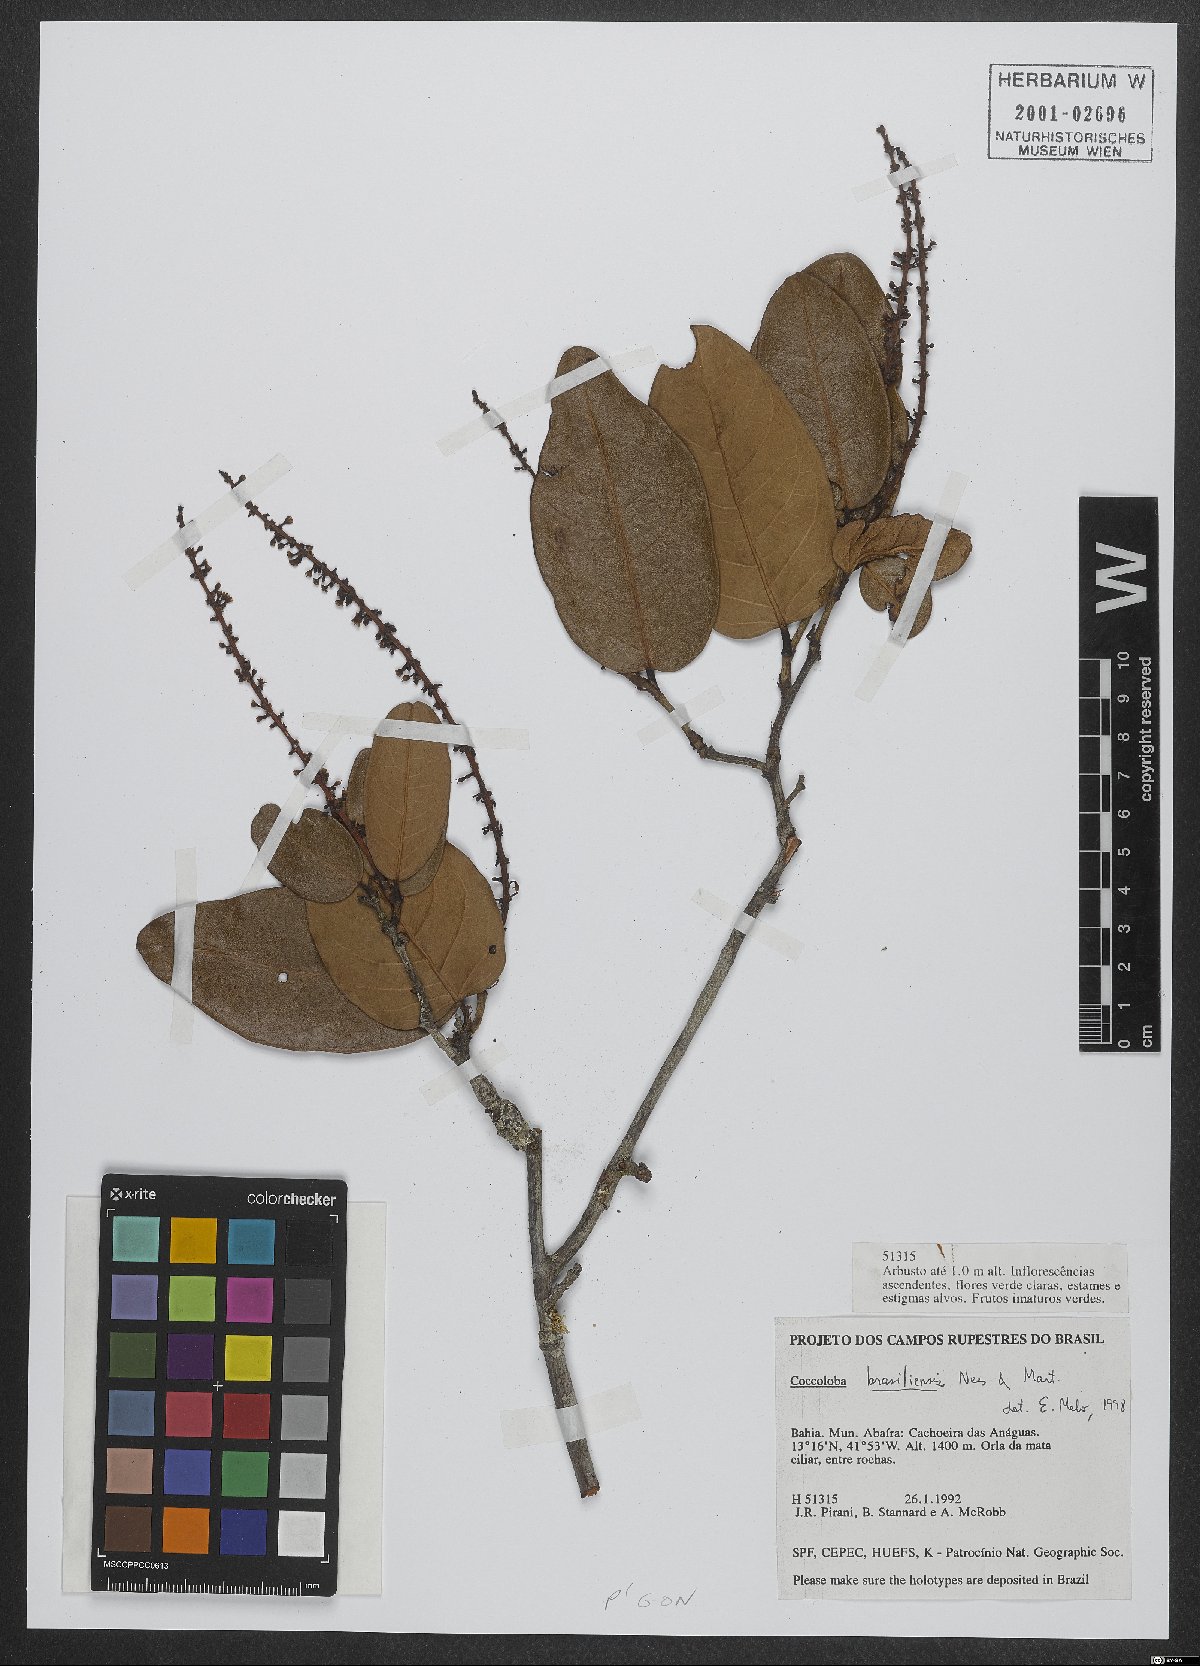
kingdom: Plantae
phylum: Tracheophyta
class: Magnoliopsida
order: Caryophyllales
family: Polygonaceae
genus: Coccoloba
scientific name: Coccoloba brasiliensis
